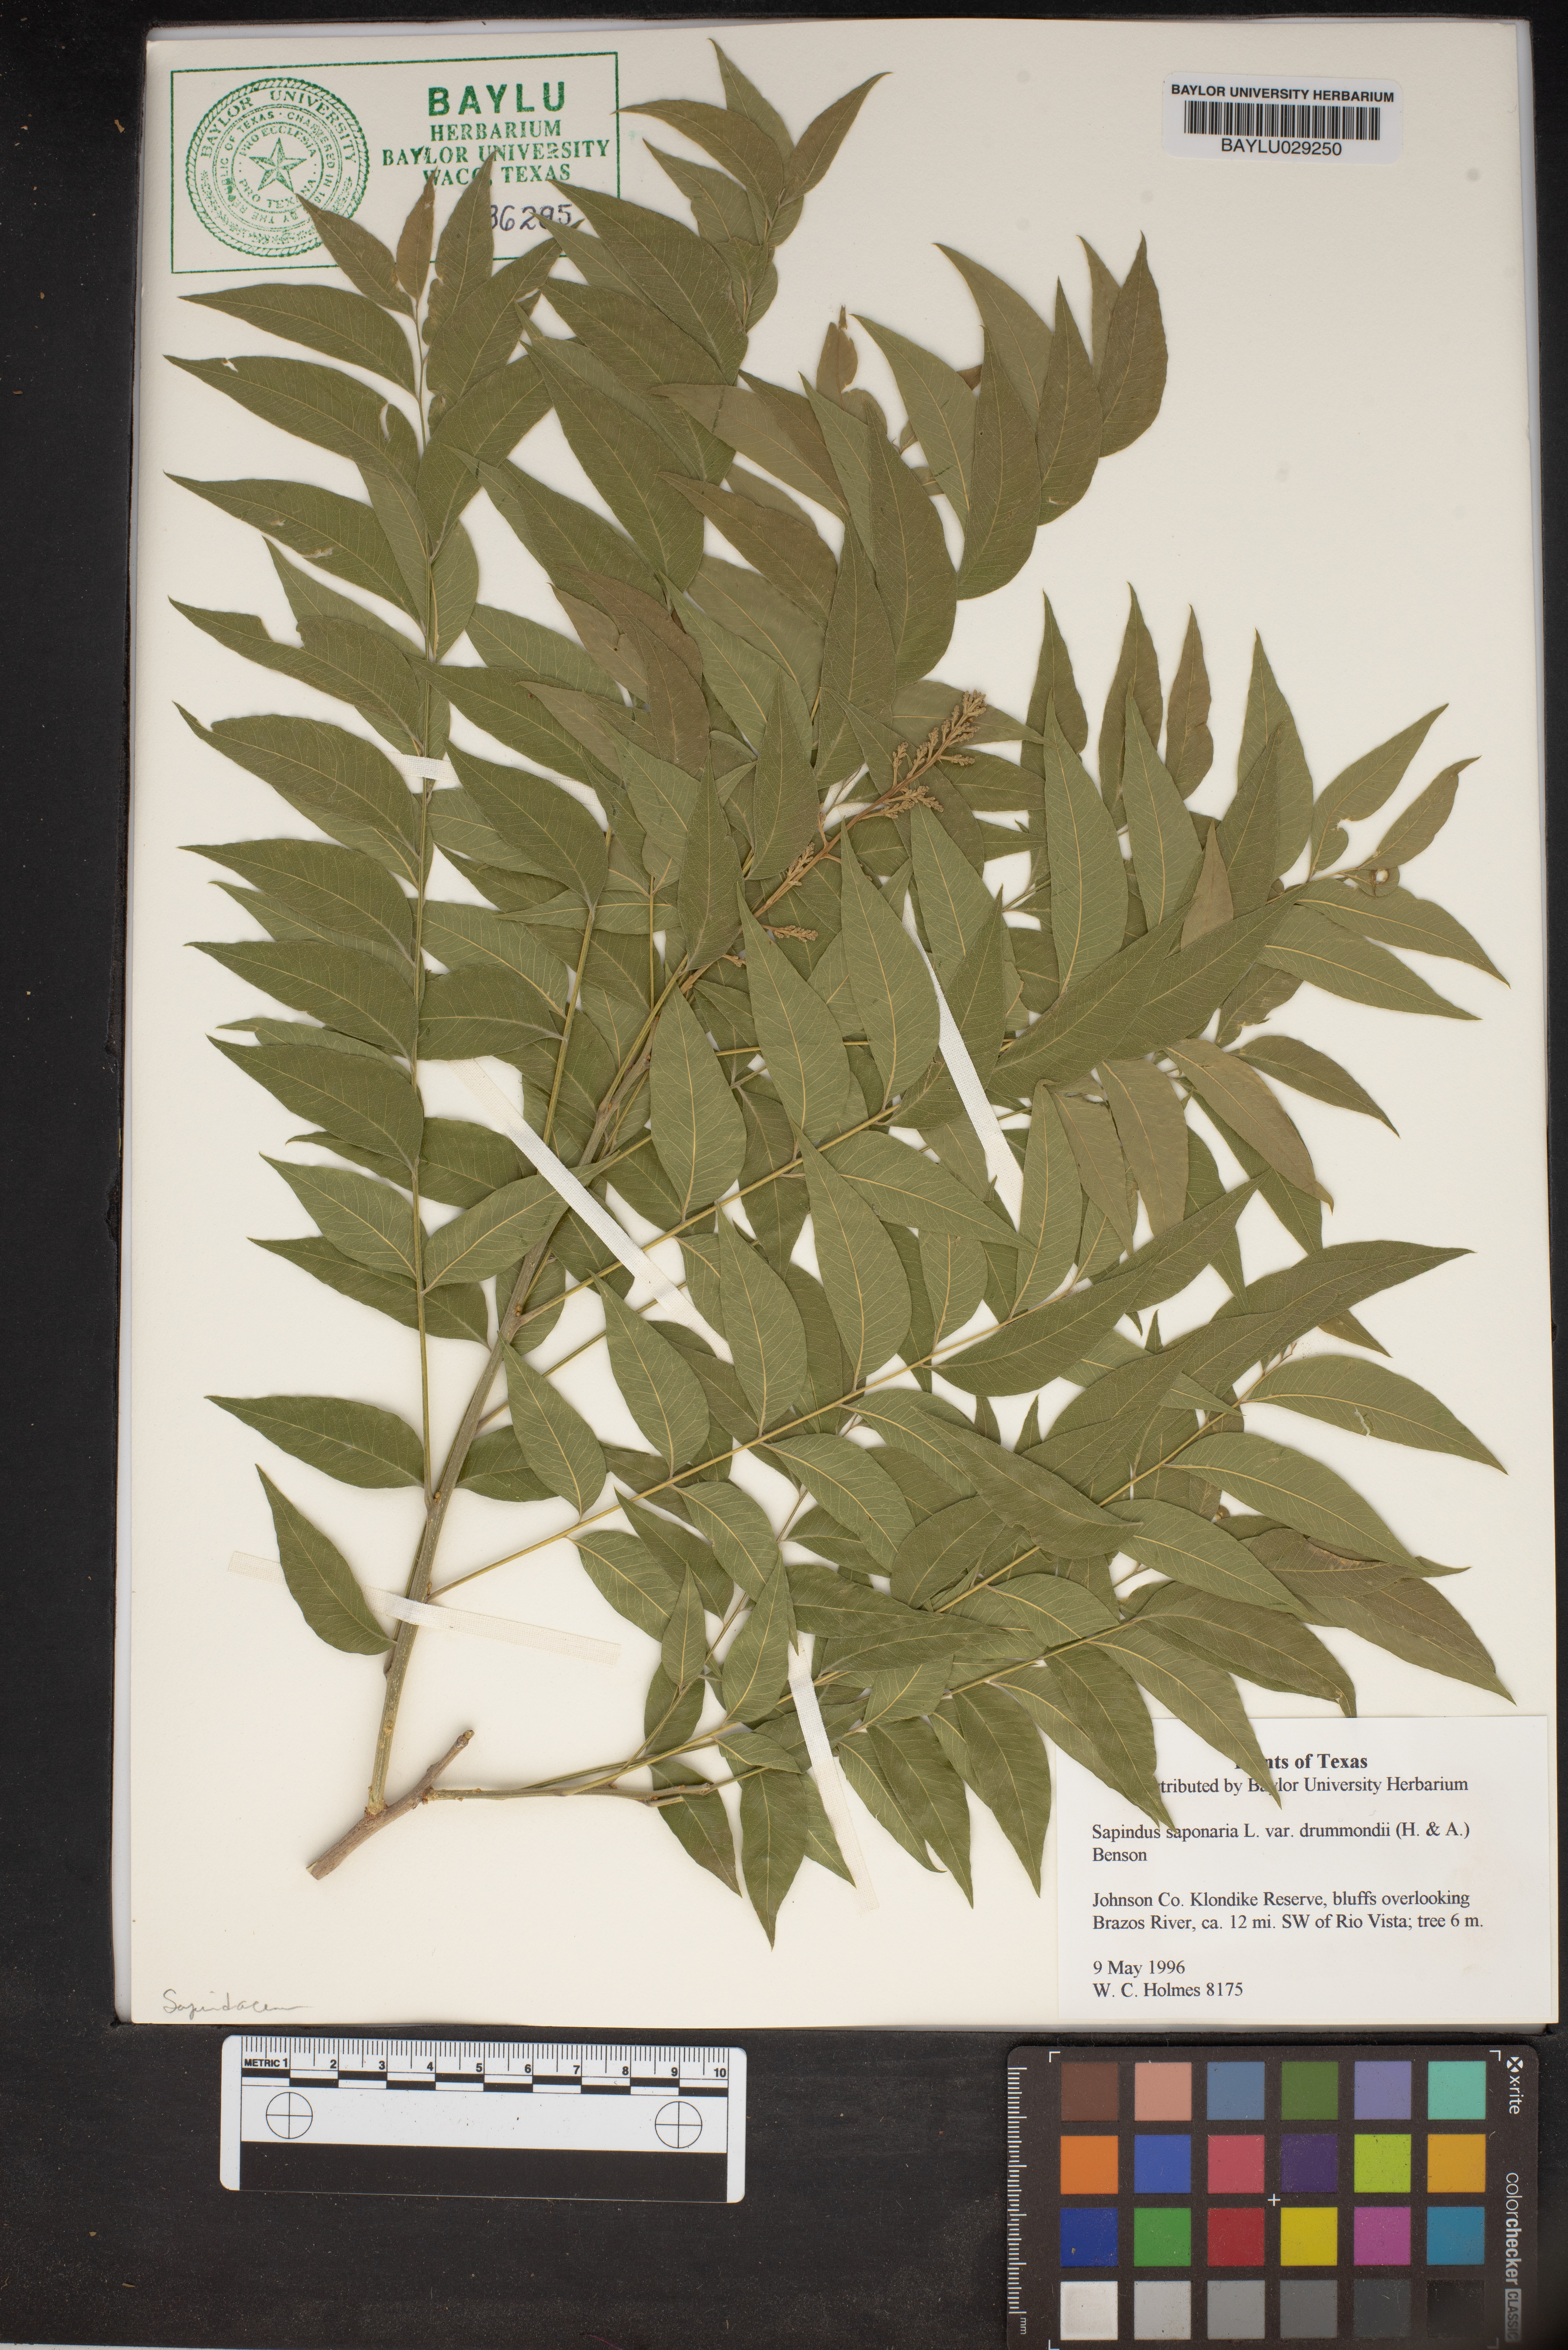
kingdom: Plantae
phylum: Tracheophyta
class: Magnoliopsida
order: Sapindales
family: Sapindaceae
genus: Sapindus
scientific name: Sapindus drummondii
